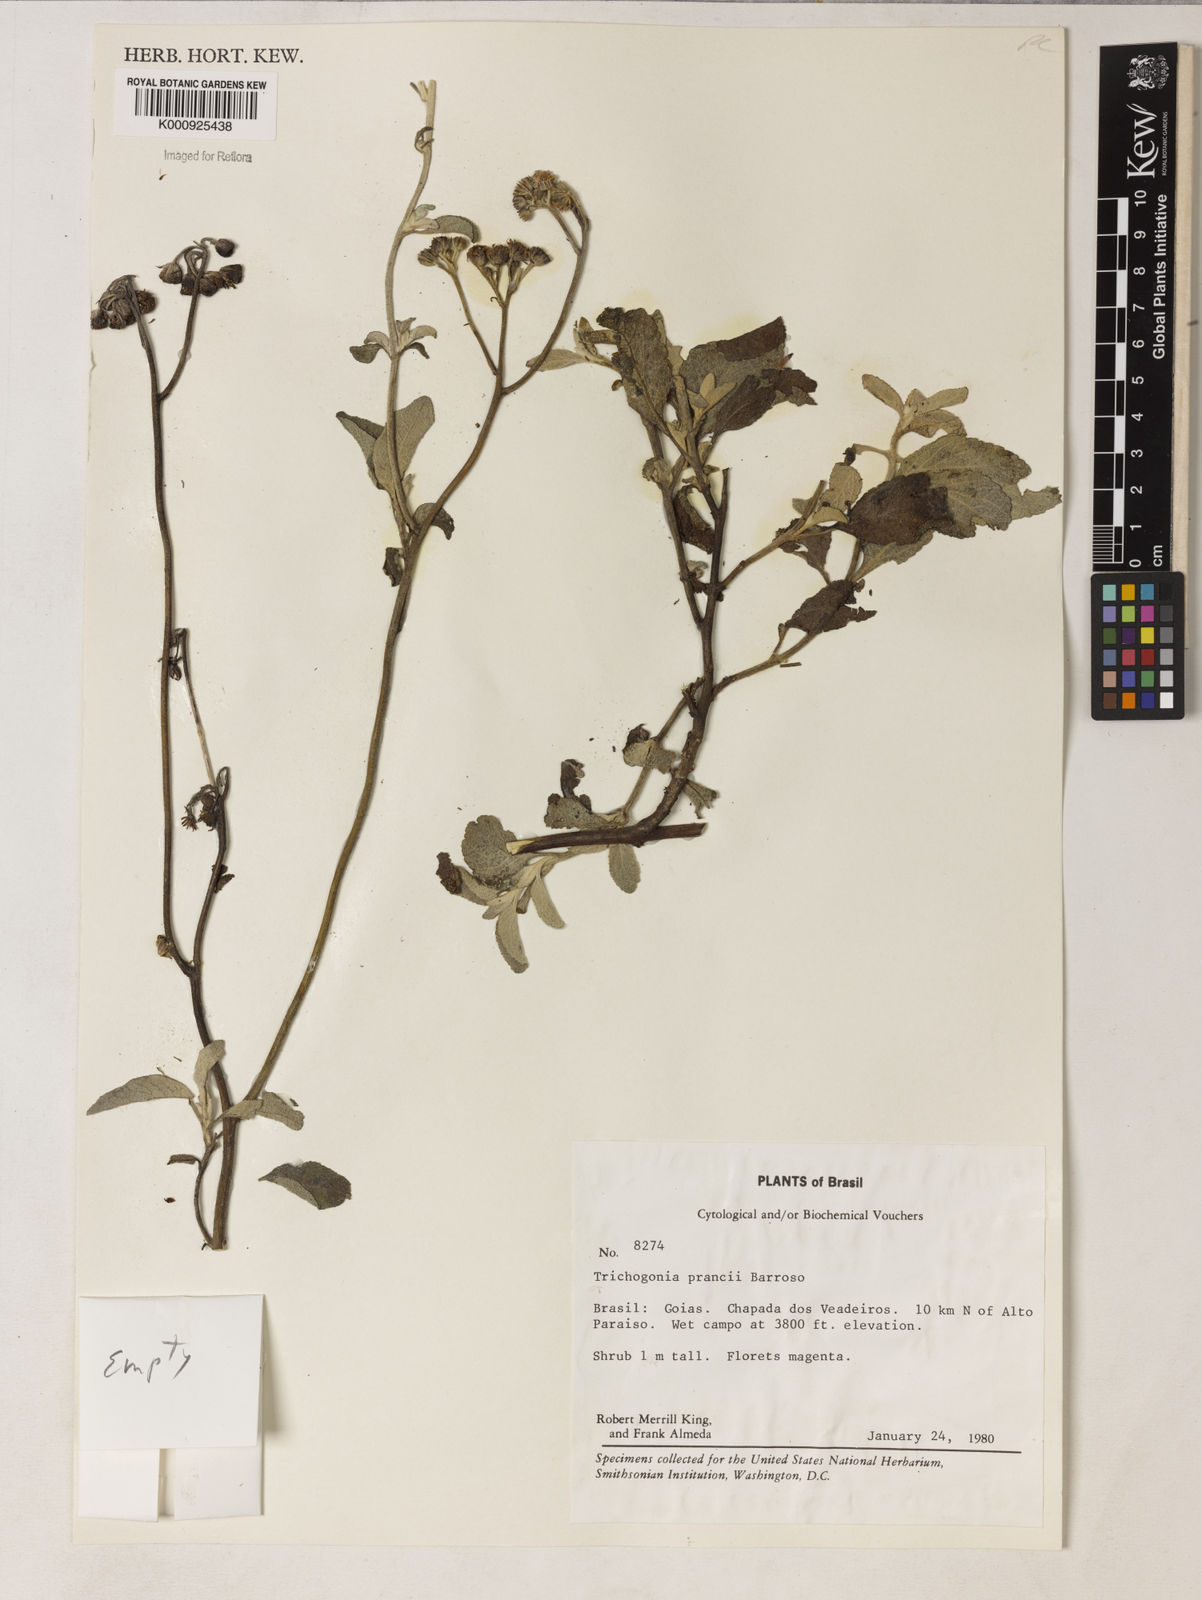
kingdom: Plantae
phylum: Tracheophyta
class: Magnoliopsida
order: Asterales
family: Asteraceae
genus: Trichogonia
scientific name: Trichogonia prancei
